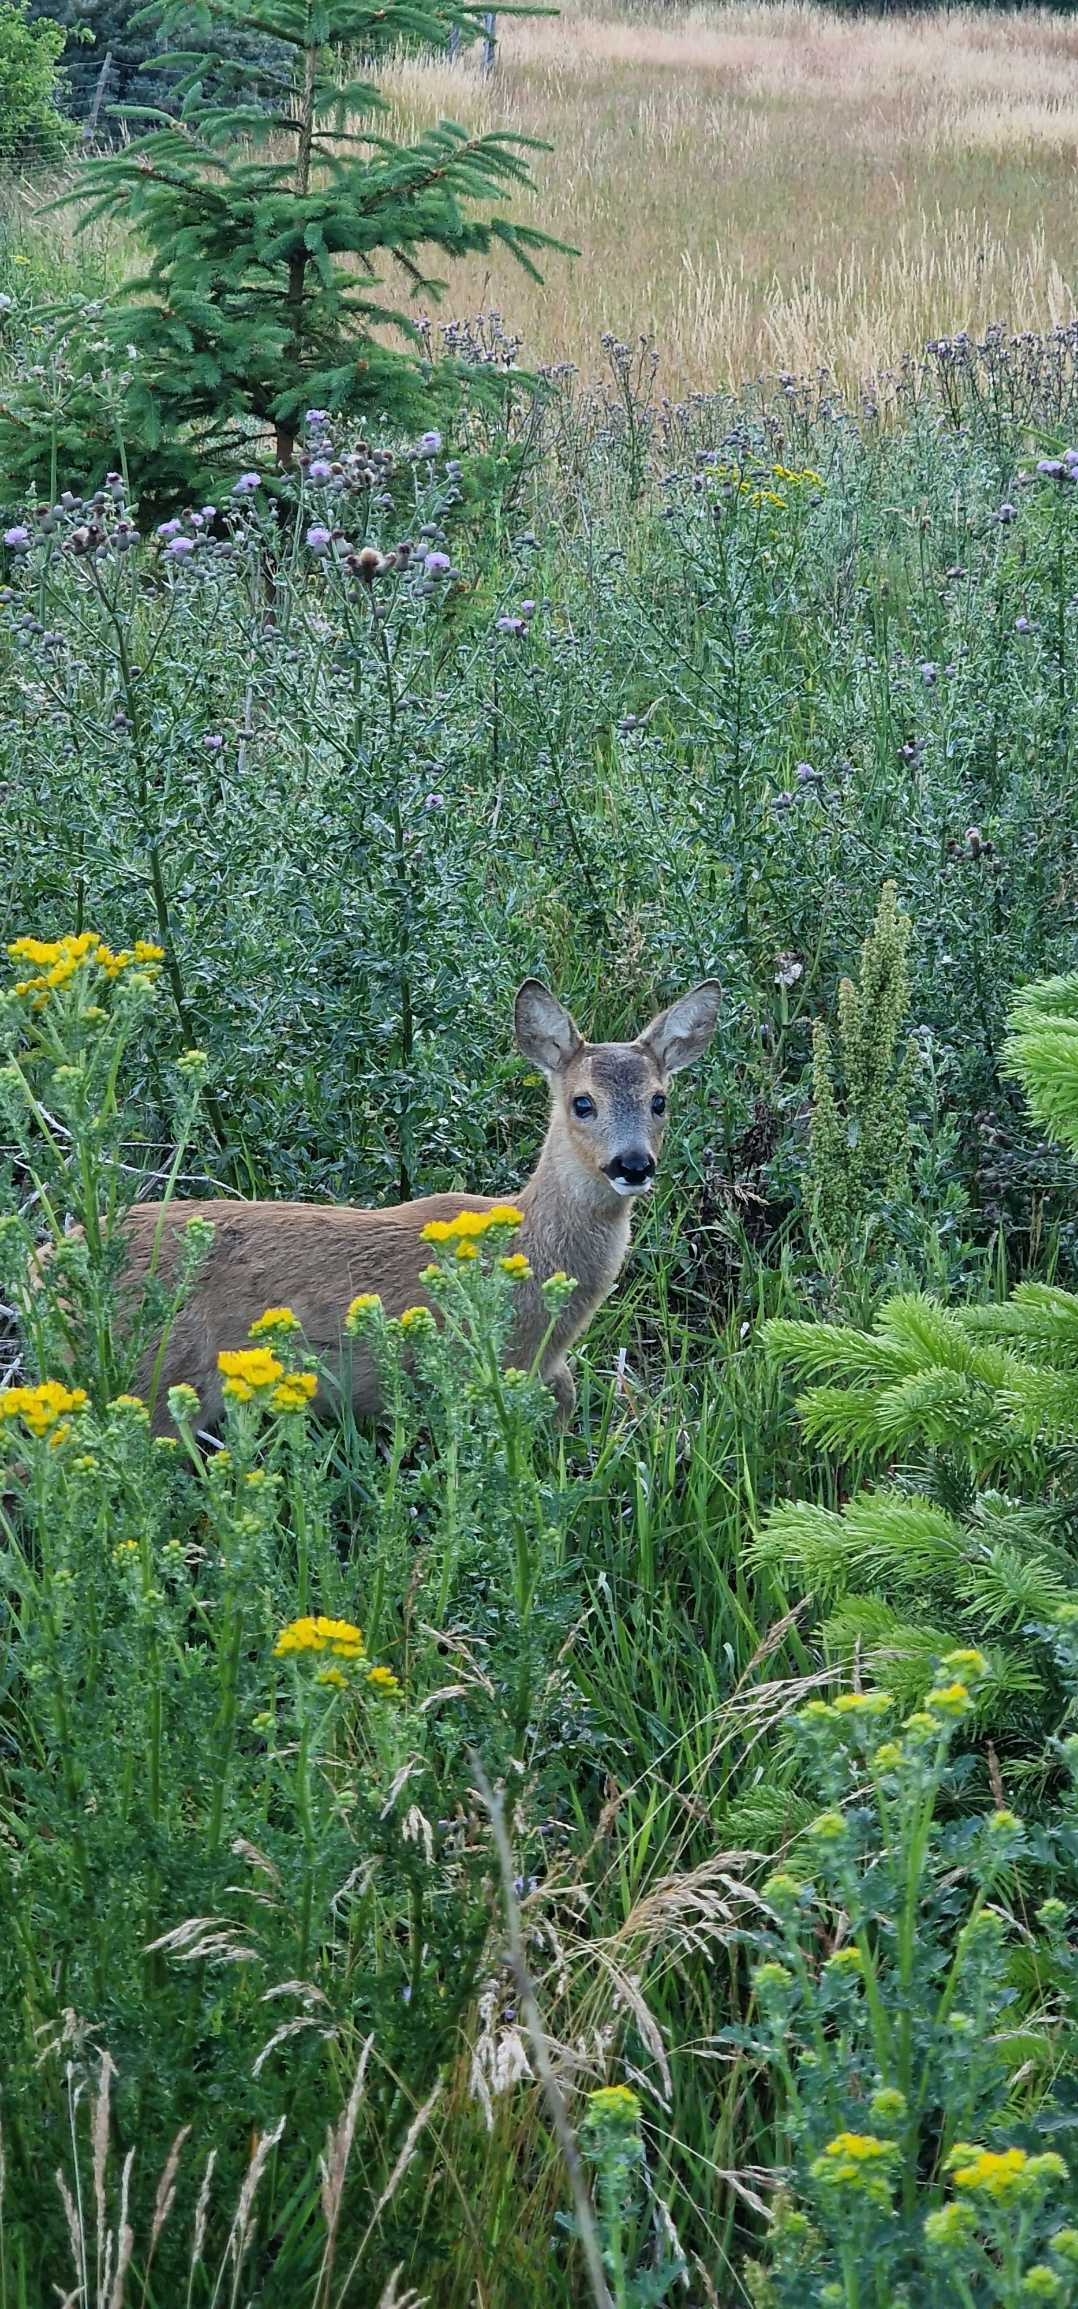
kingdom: Animalia
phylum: Chordata
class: Mammalia
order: Artiodactyla
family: Cervidae
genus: Capreolus
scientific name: Capreolus capreolus
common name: Rådyr
